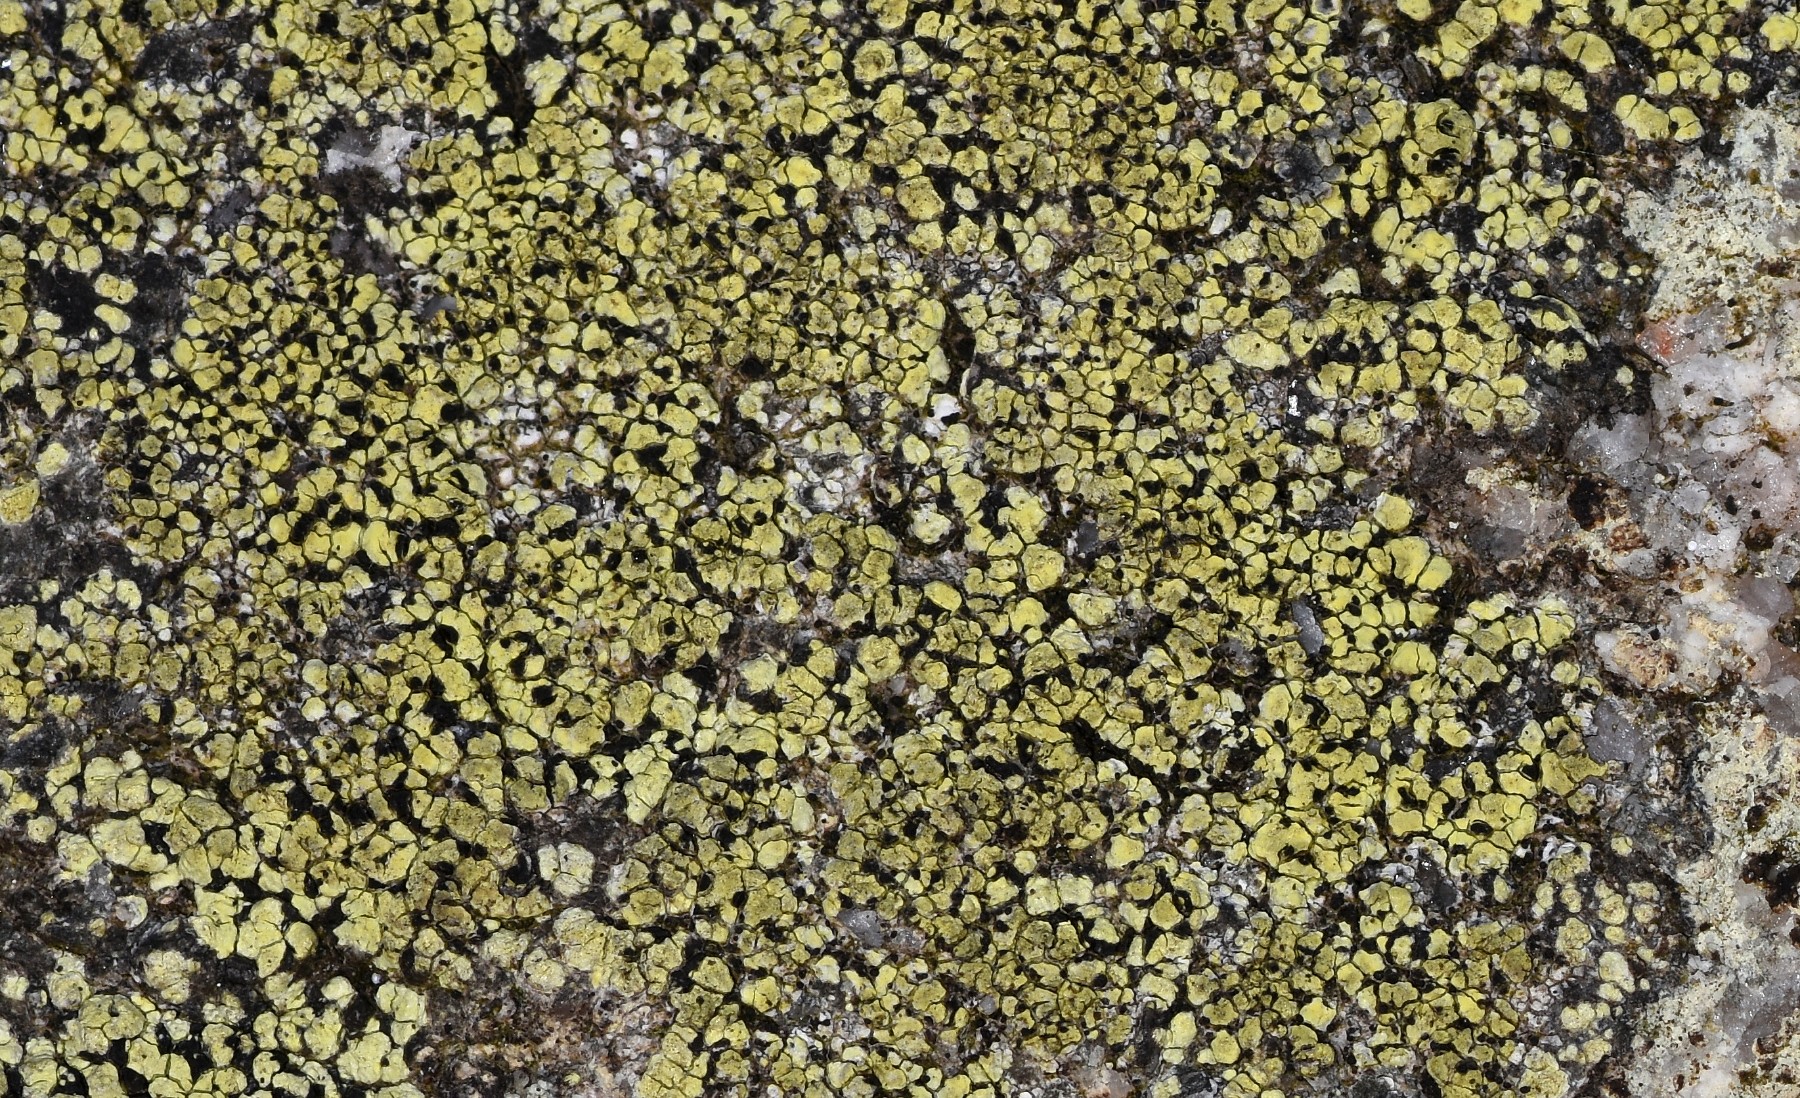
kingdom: Fungi
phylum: Ascomycota
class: Lecanoromycetes
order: Rhizocarpales
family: Rhizocarpaceae
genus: Rhizocarpon
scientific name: Rhizocarpon geographicum
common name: gulgrøn landkortlav
